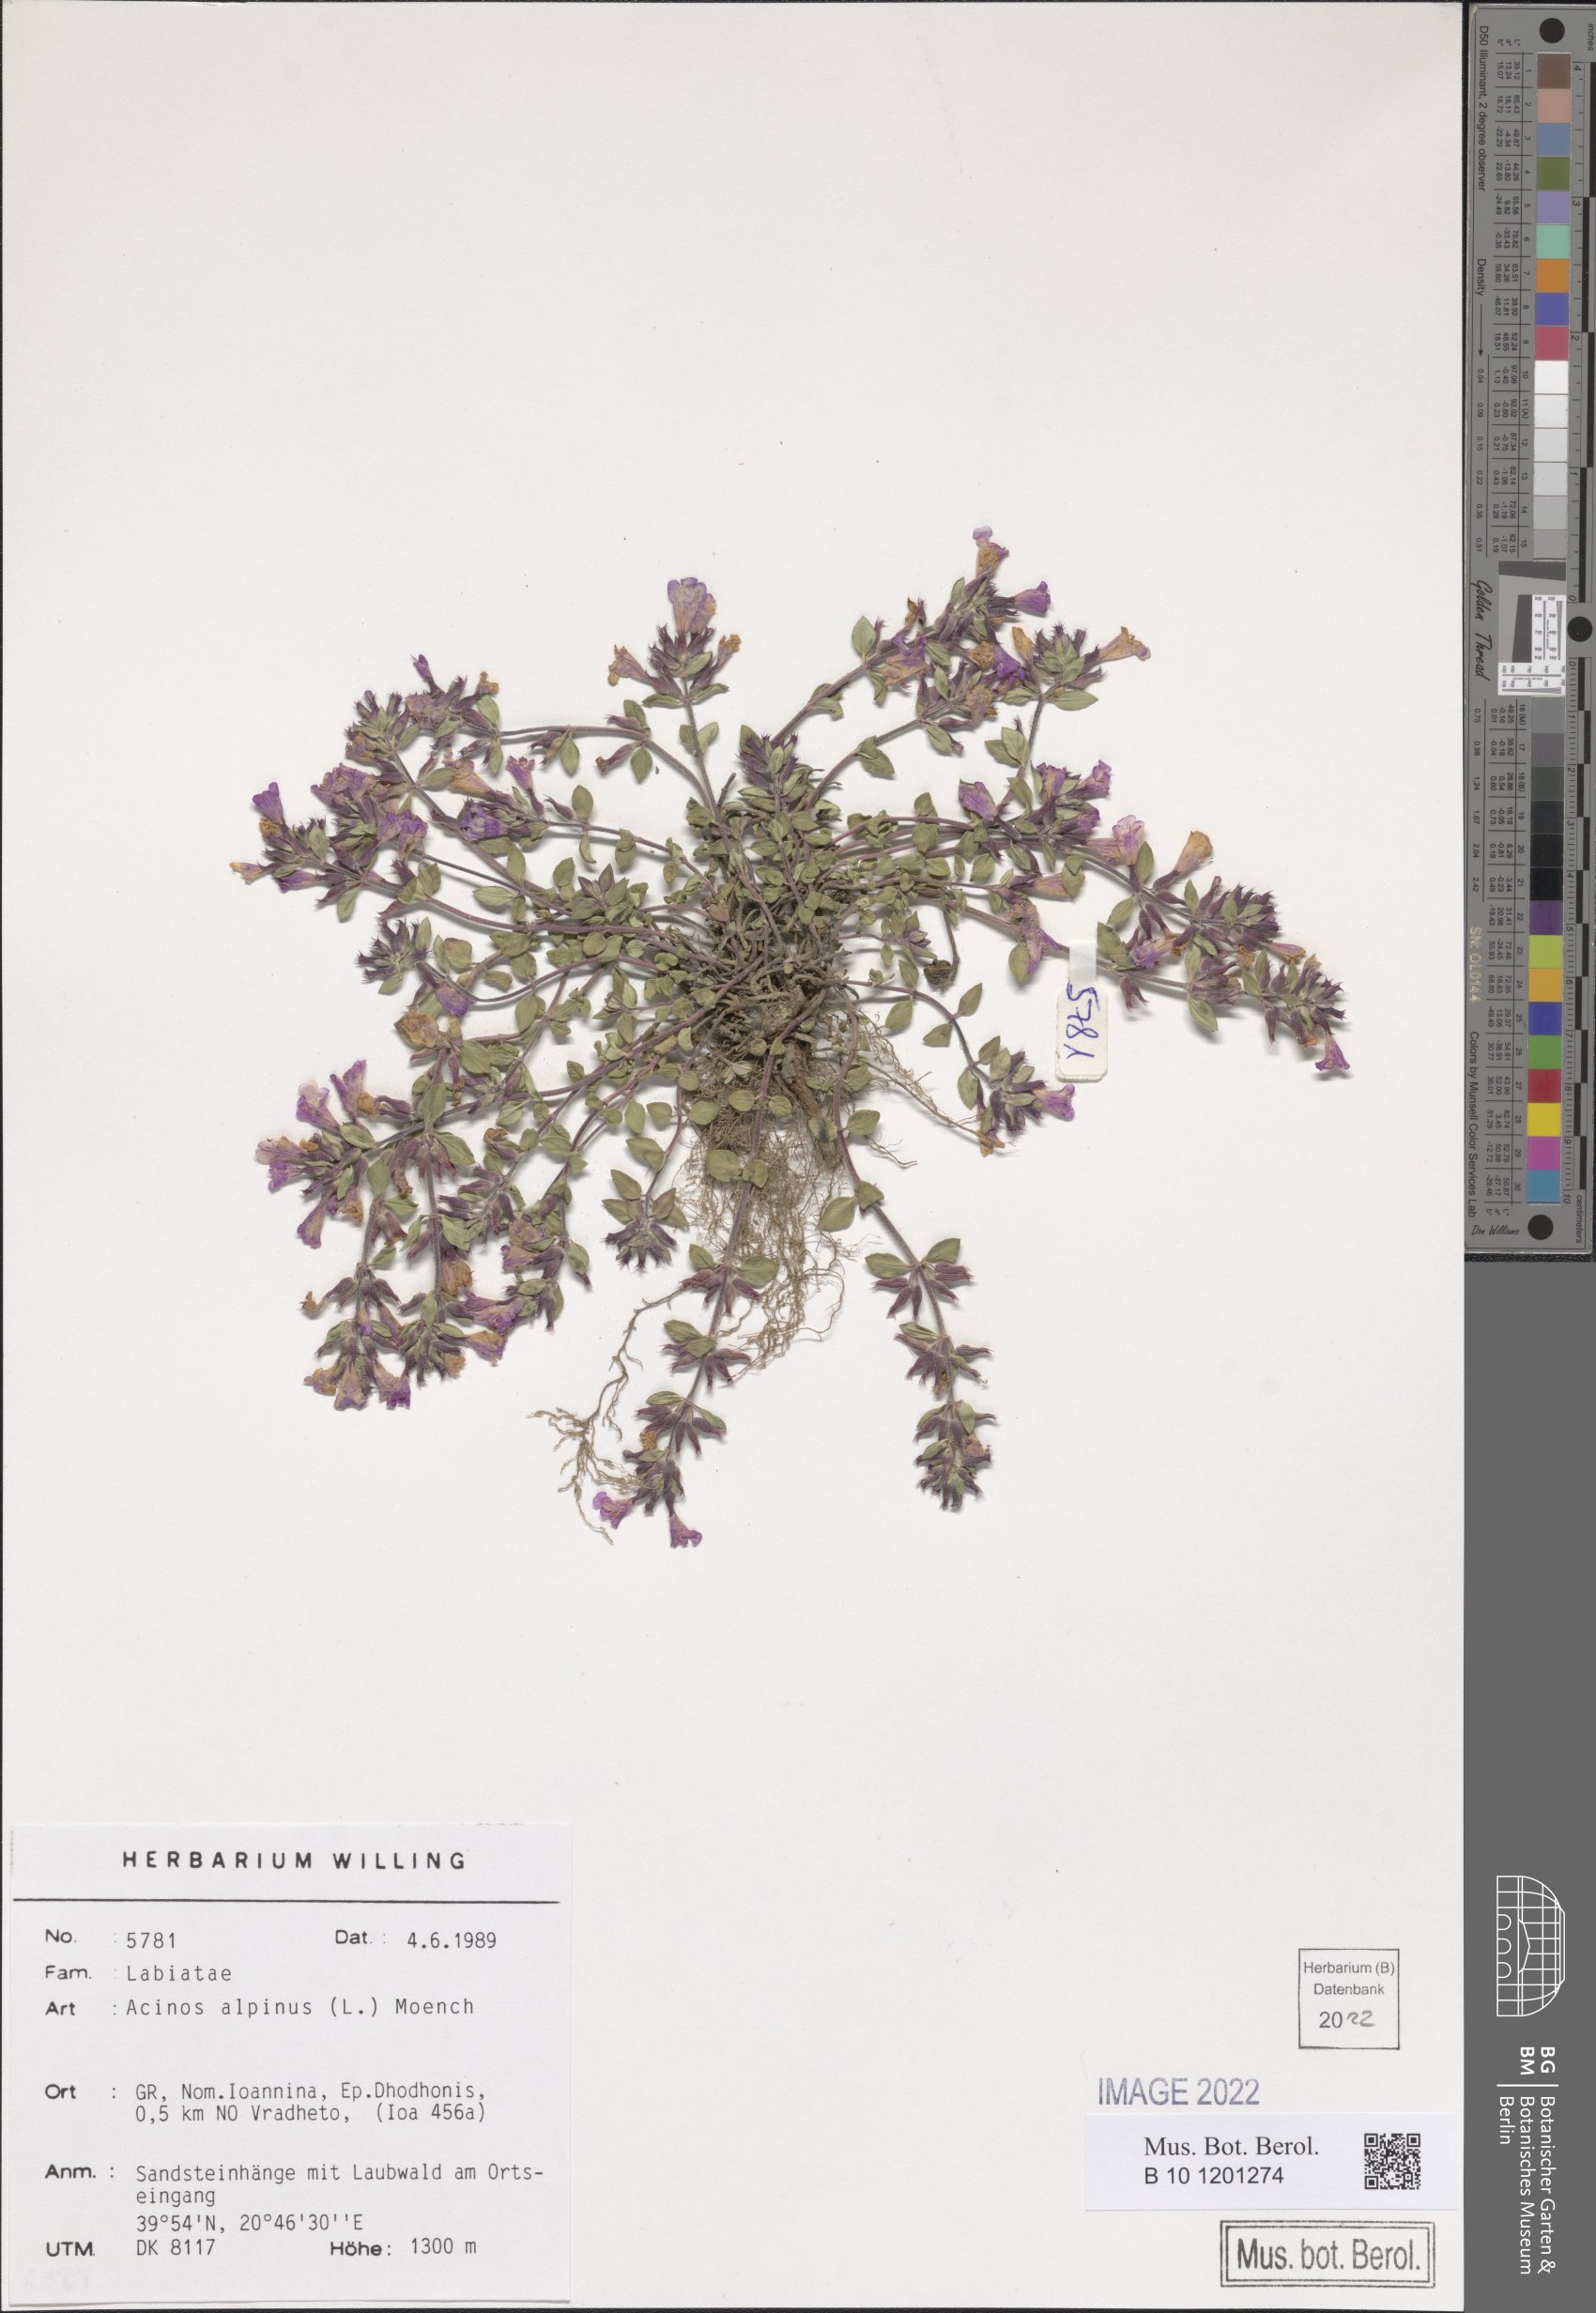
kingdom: Plantae
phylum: Tracheophyta
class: Magnoliopsida
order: Lamiales
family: Lamiaceae
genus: Clinopodium
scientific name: Clinopodium alpinum
